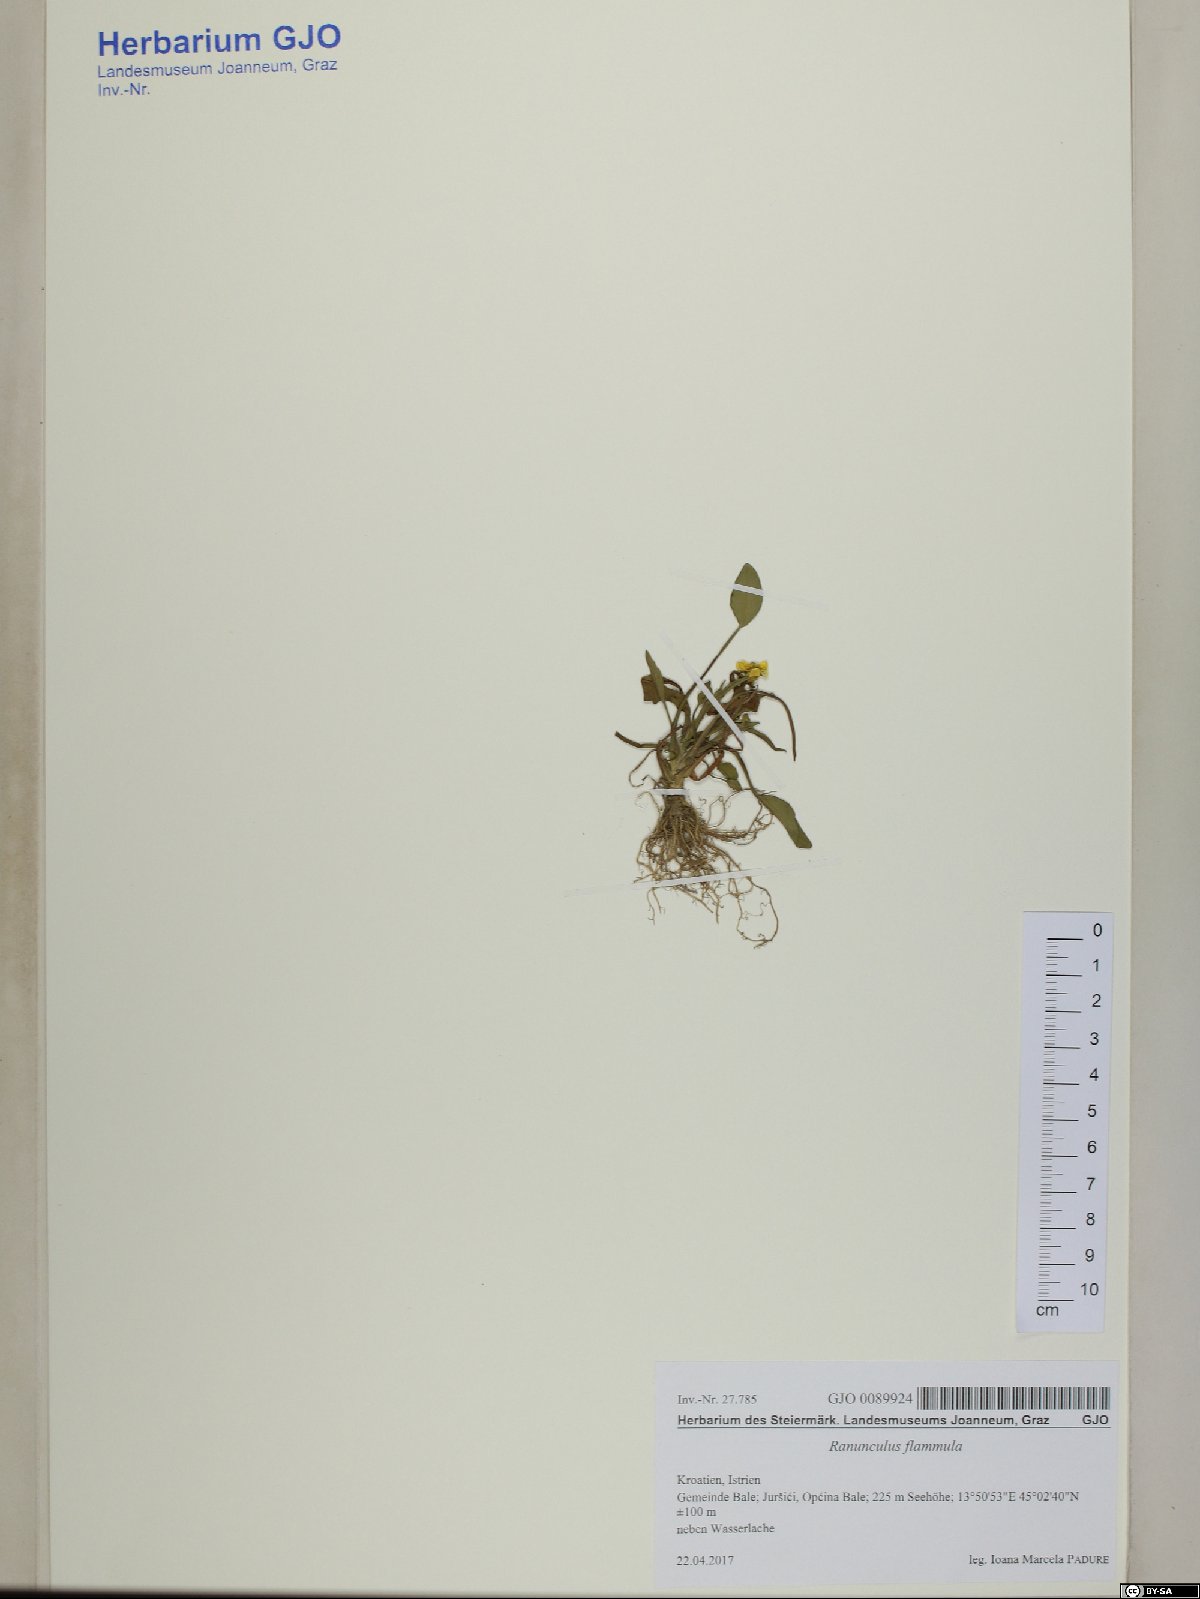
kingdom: Plantae
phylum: Tracheophyta
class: Magnoliopsida
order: Ranunculales
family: Ranunculaceae
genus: Ranunculus
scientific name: Ranunculus flammula
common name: Lesser spearwort
